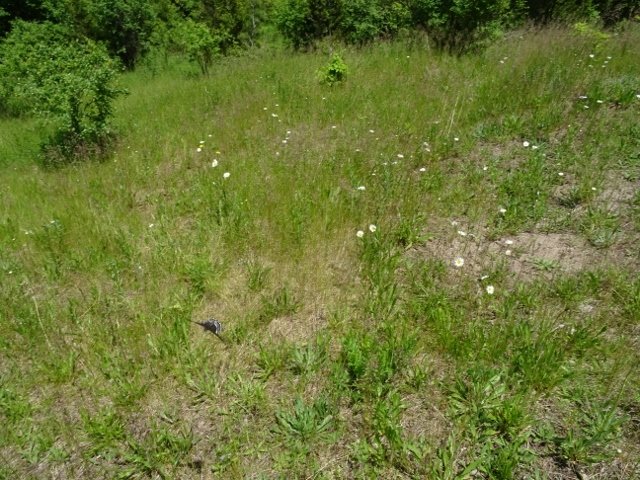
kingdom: Animalia
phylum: Arthropoda
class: Insecta
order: Lepidoptera
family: Papilionidae
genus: Papilio
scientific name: Papilio polyxenes
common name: Black Swallowtail
